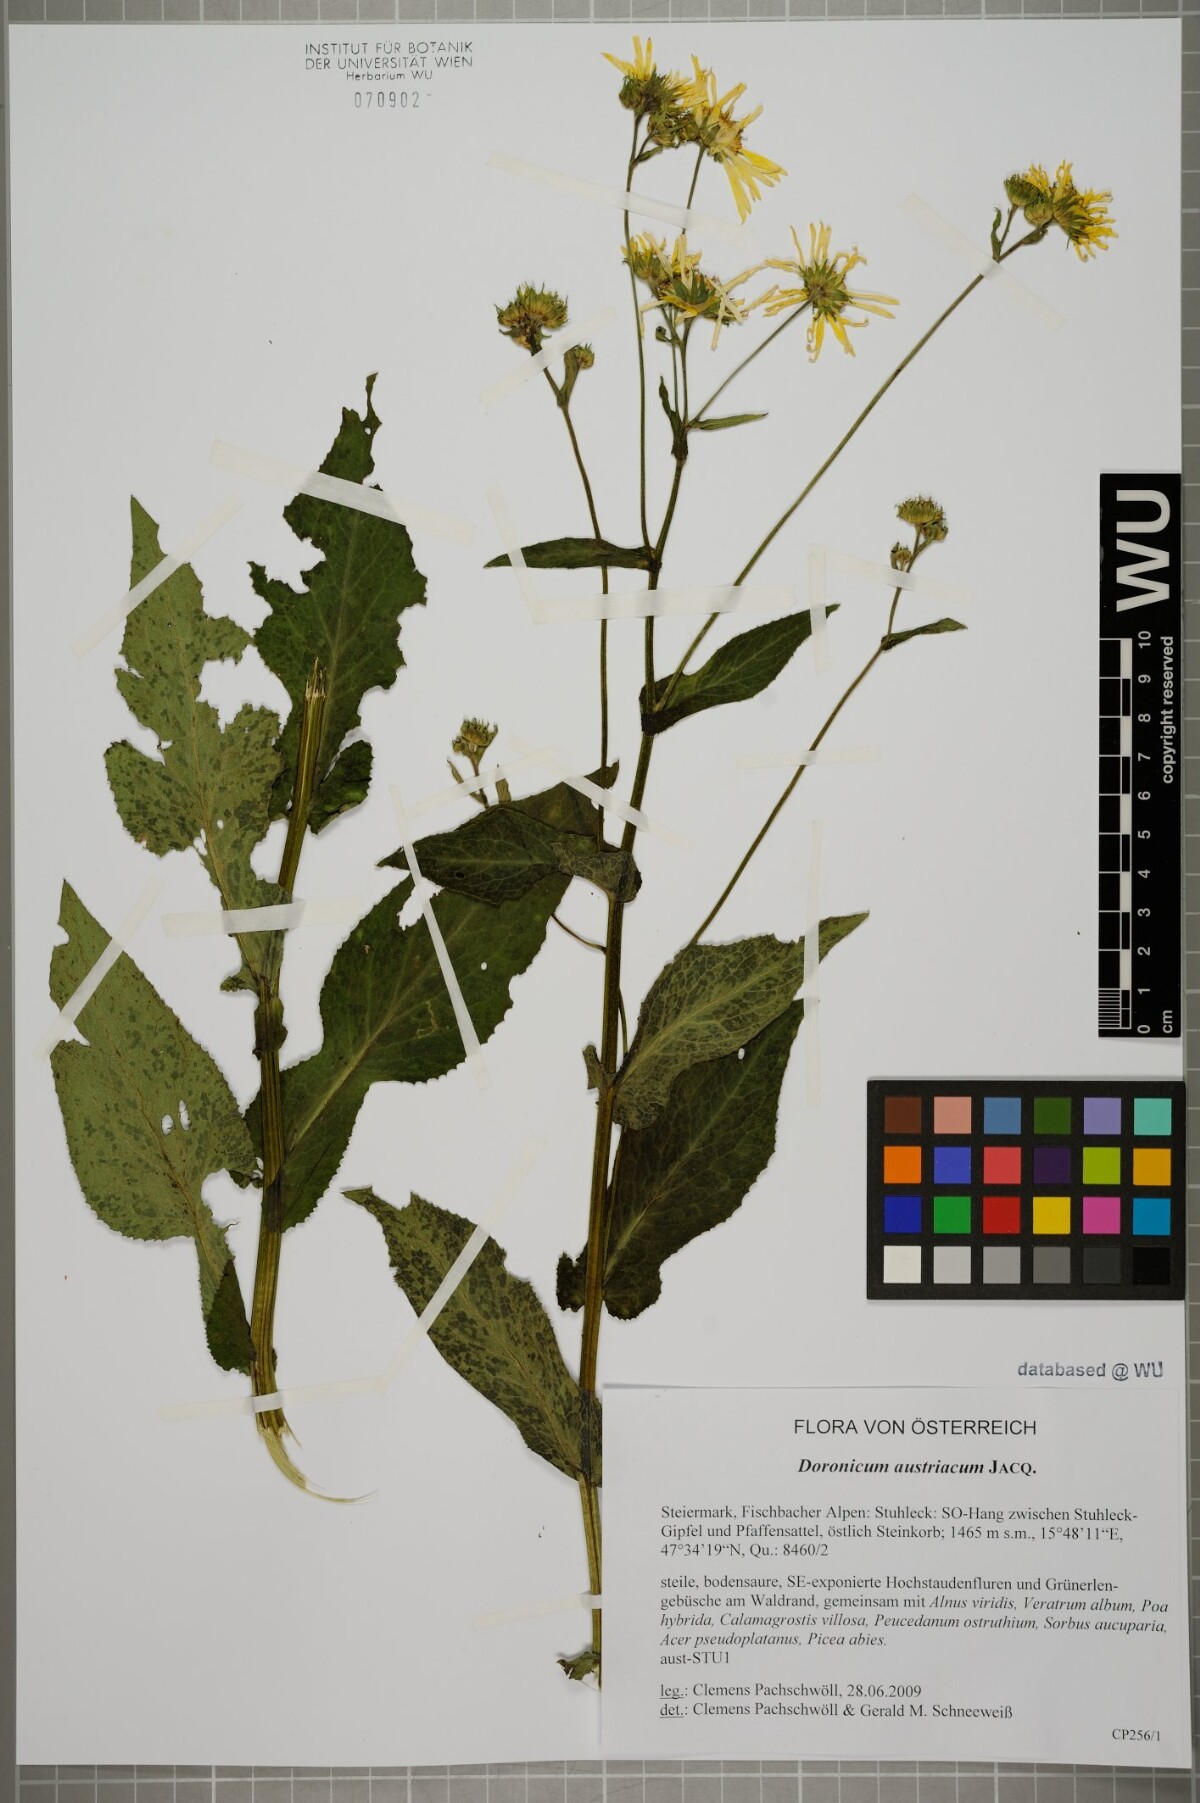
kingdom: Plantae
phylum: Tracheophyta
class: Magnoliopsida
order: Asterales
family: Asteraceae
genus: Doronicum
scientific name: Doronicum austriacum
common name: Austrian leopard's-bane
